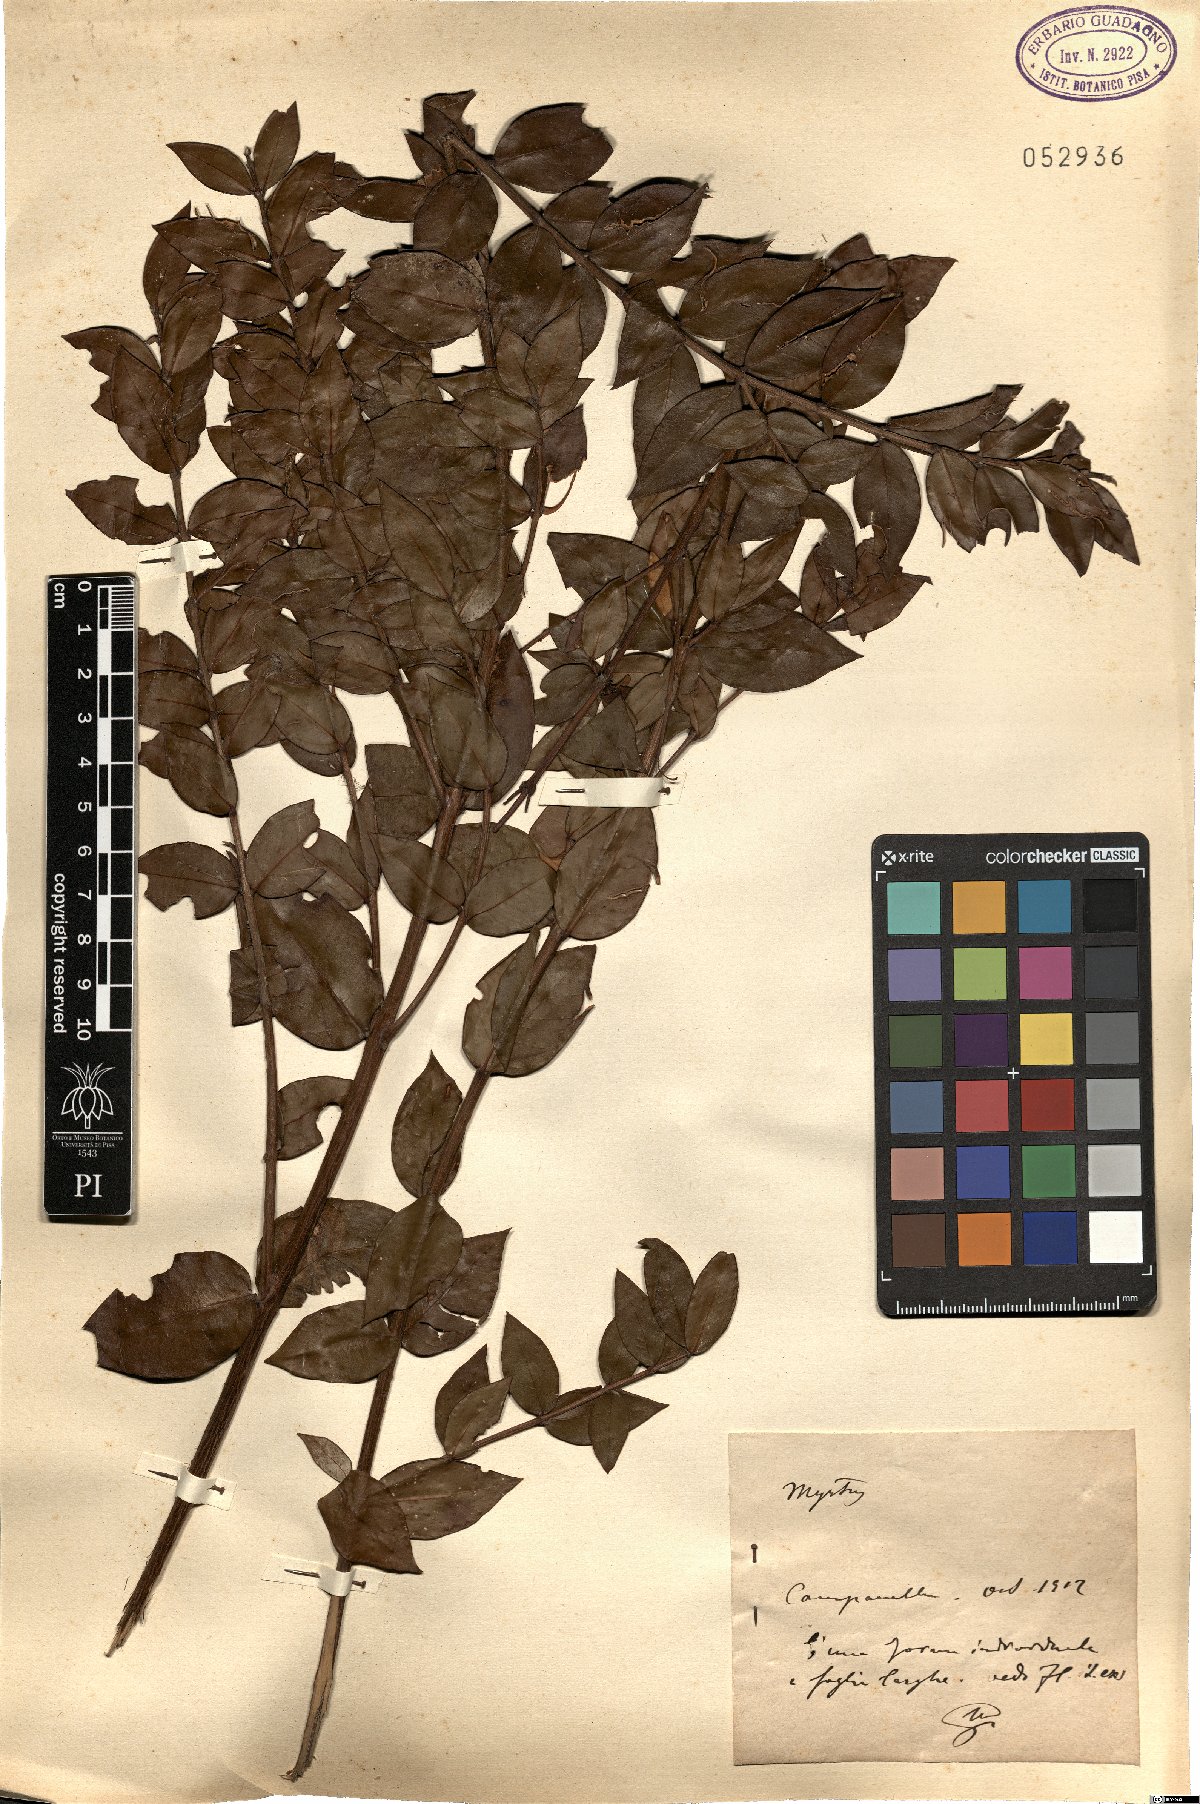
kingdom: Plantae
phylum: Tracheophyta
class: Magnoliopsida
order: Myrtales
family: Myrtaceae
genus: Myrtus
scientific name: Myrtus
